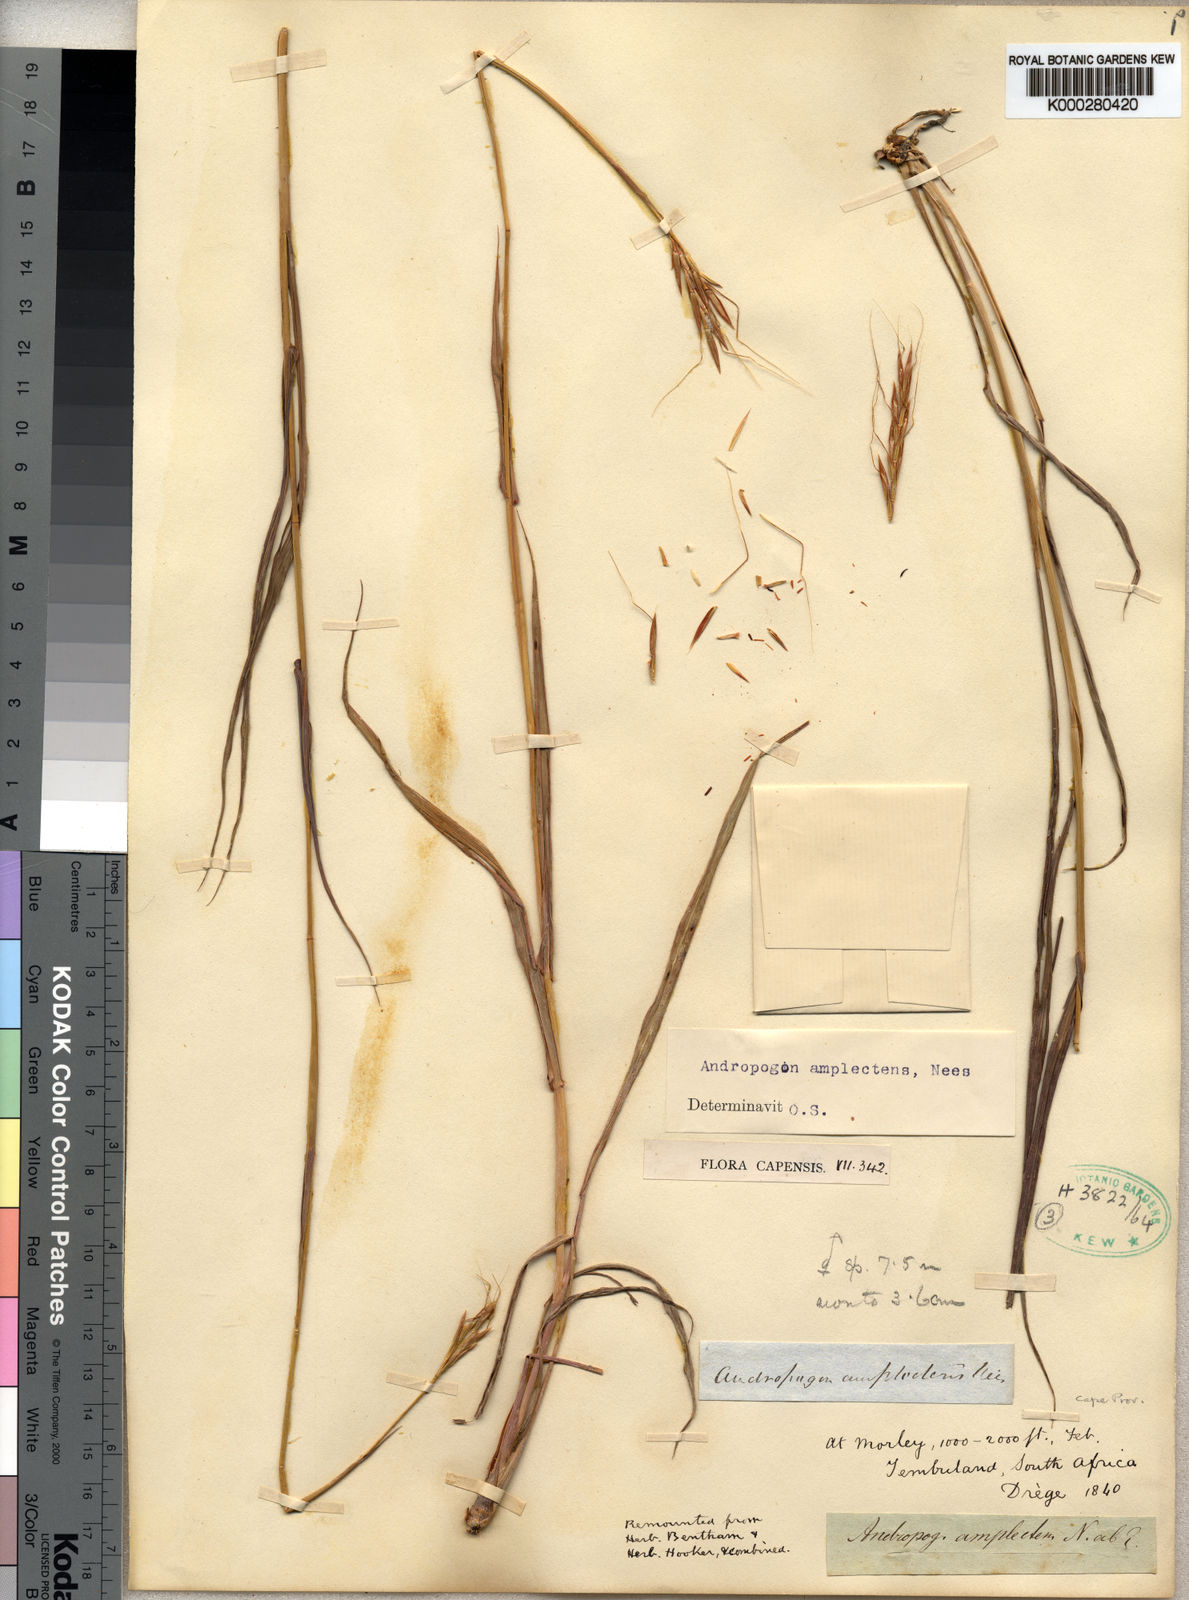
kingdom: Plantae
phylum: Tracheophyta
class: Liliopsida
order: Poales
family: Poaceae
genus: Diheteropogon
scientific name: Diheteropogon amplectens
